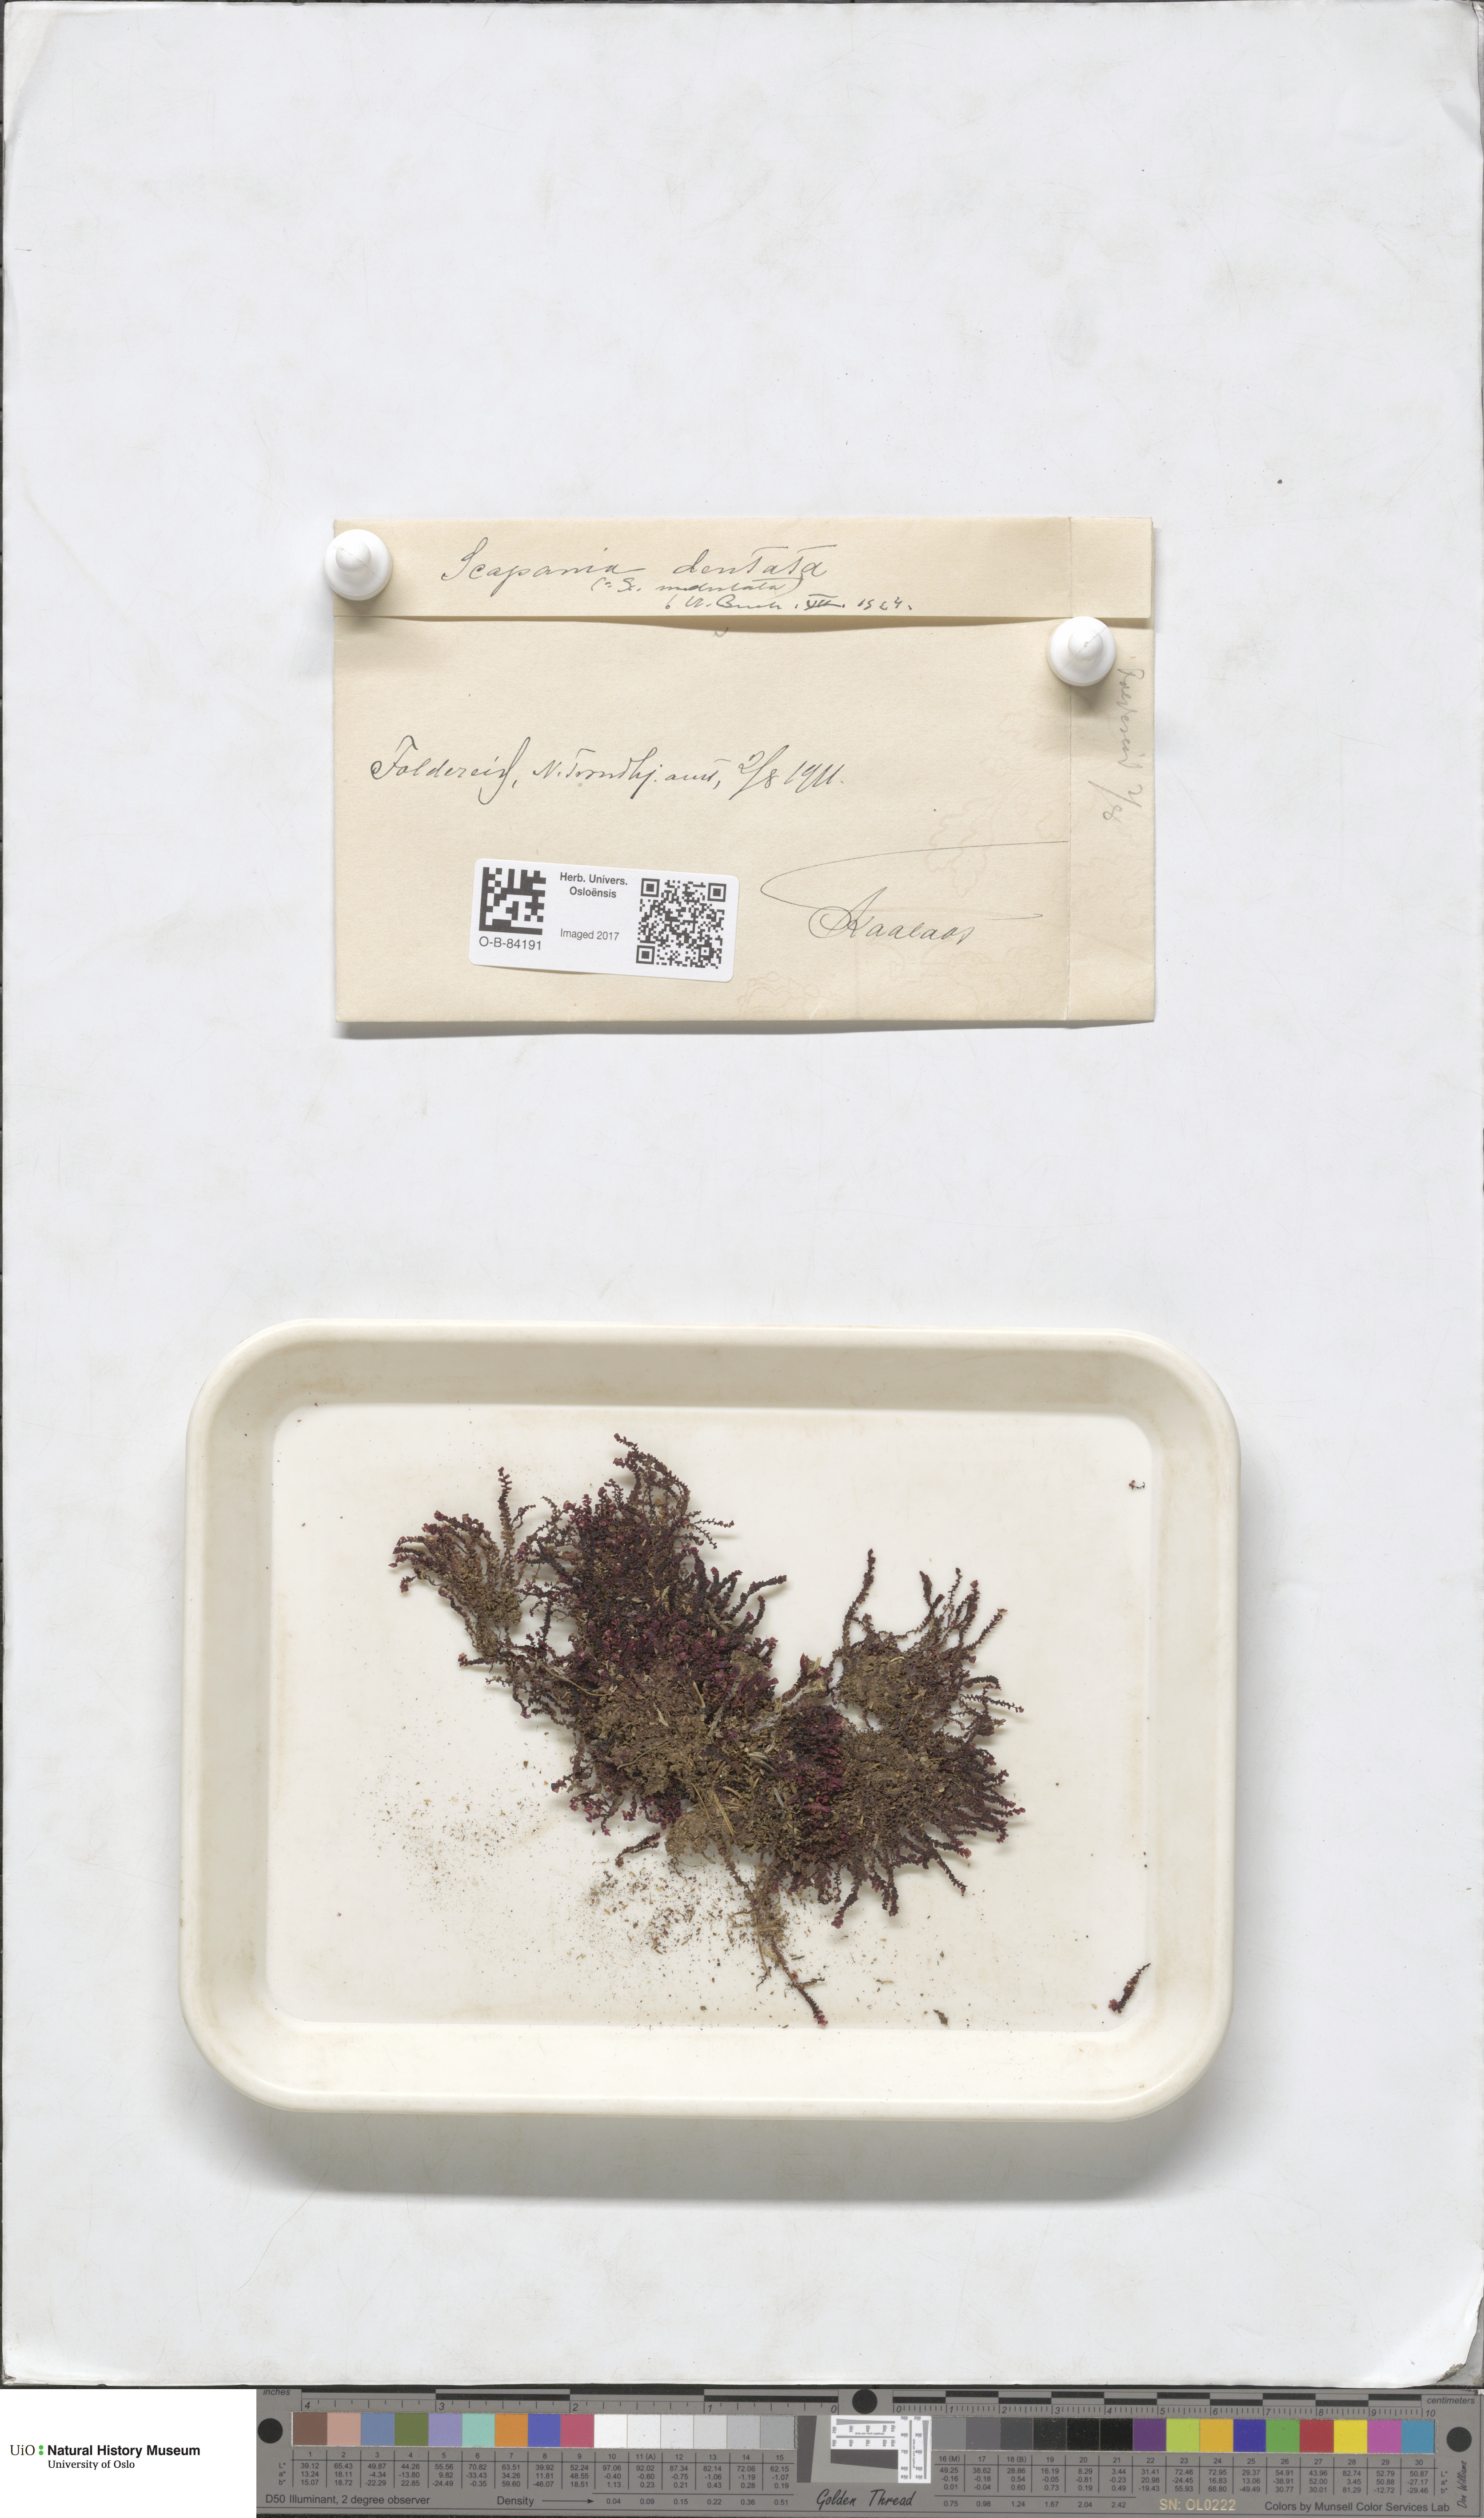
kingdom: Plantae
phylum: Marchantiophyta
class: Jungermanniopsida
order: Jungermanniales
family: Scapaniaceae
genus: Scapania
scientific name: Scapania undulata
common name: Water earwort
